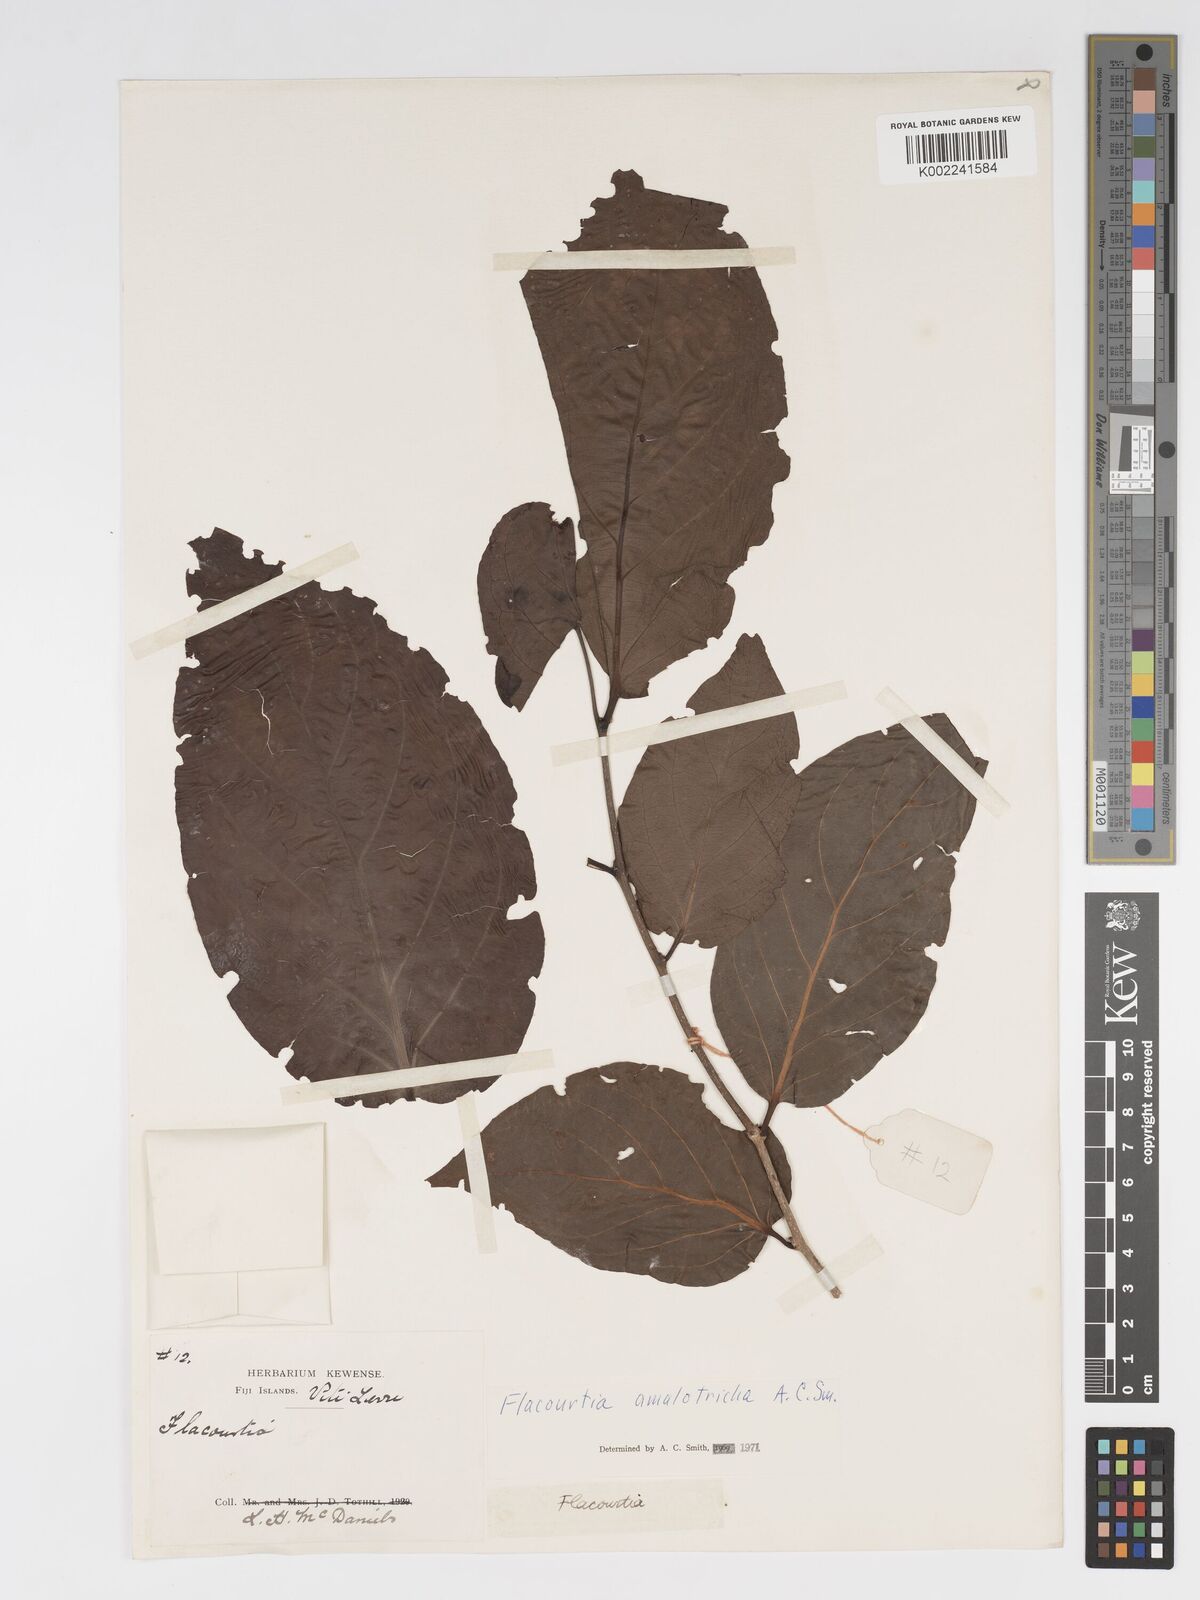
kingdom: Plantae
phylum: Tracheophyta
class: Magnoliopsida
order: Malpighiales
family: Salicaceae
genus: Flacourtia
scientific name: Flacourtia amalotricha
